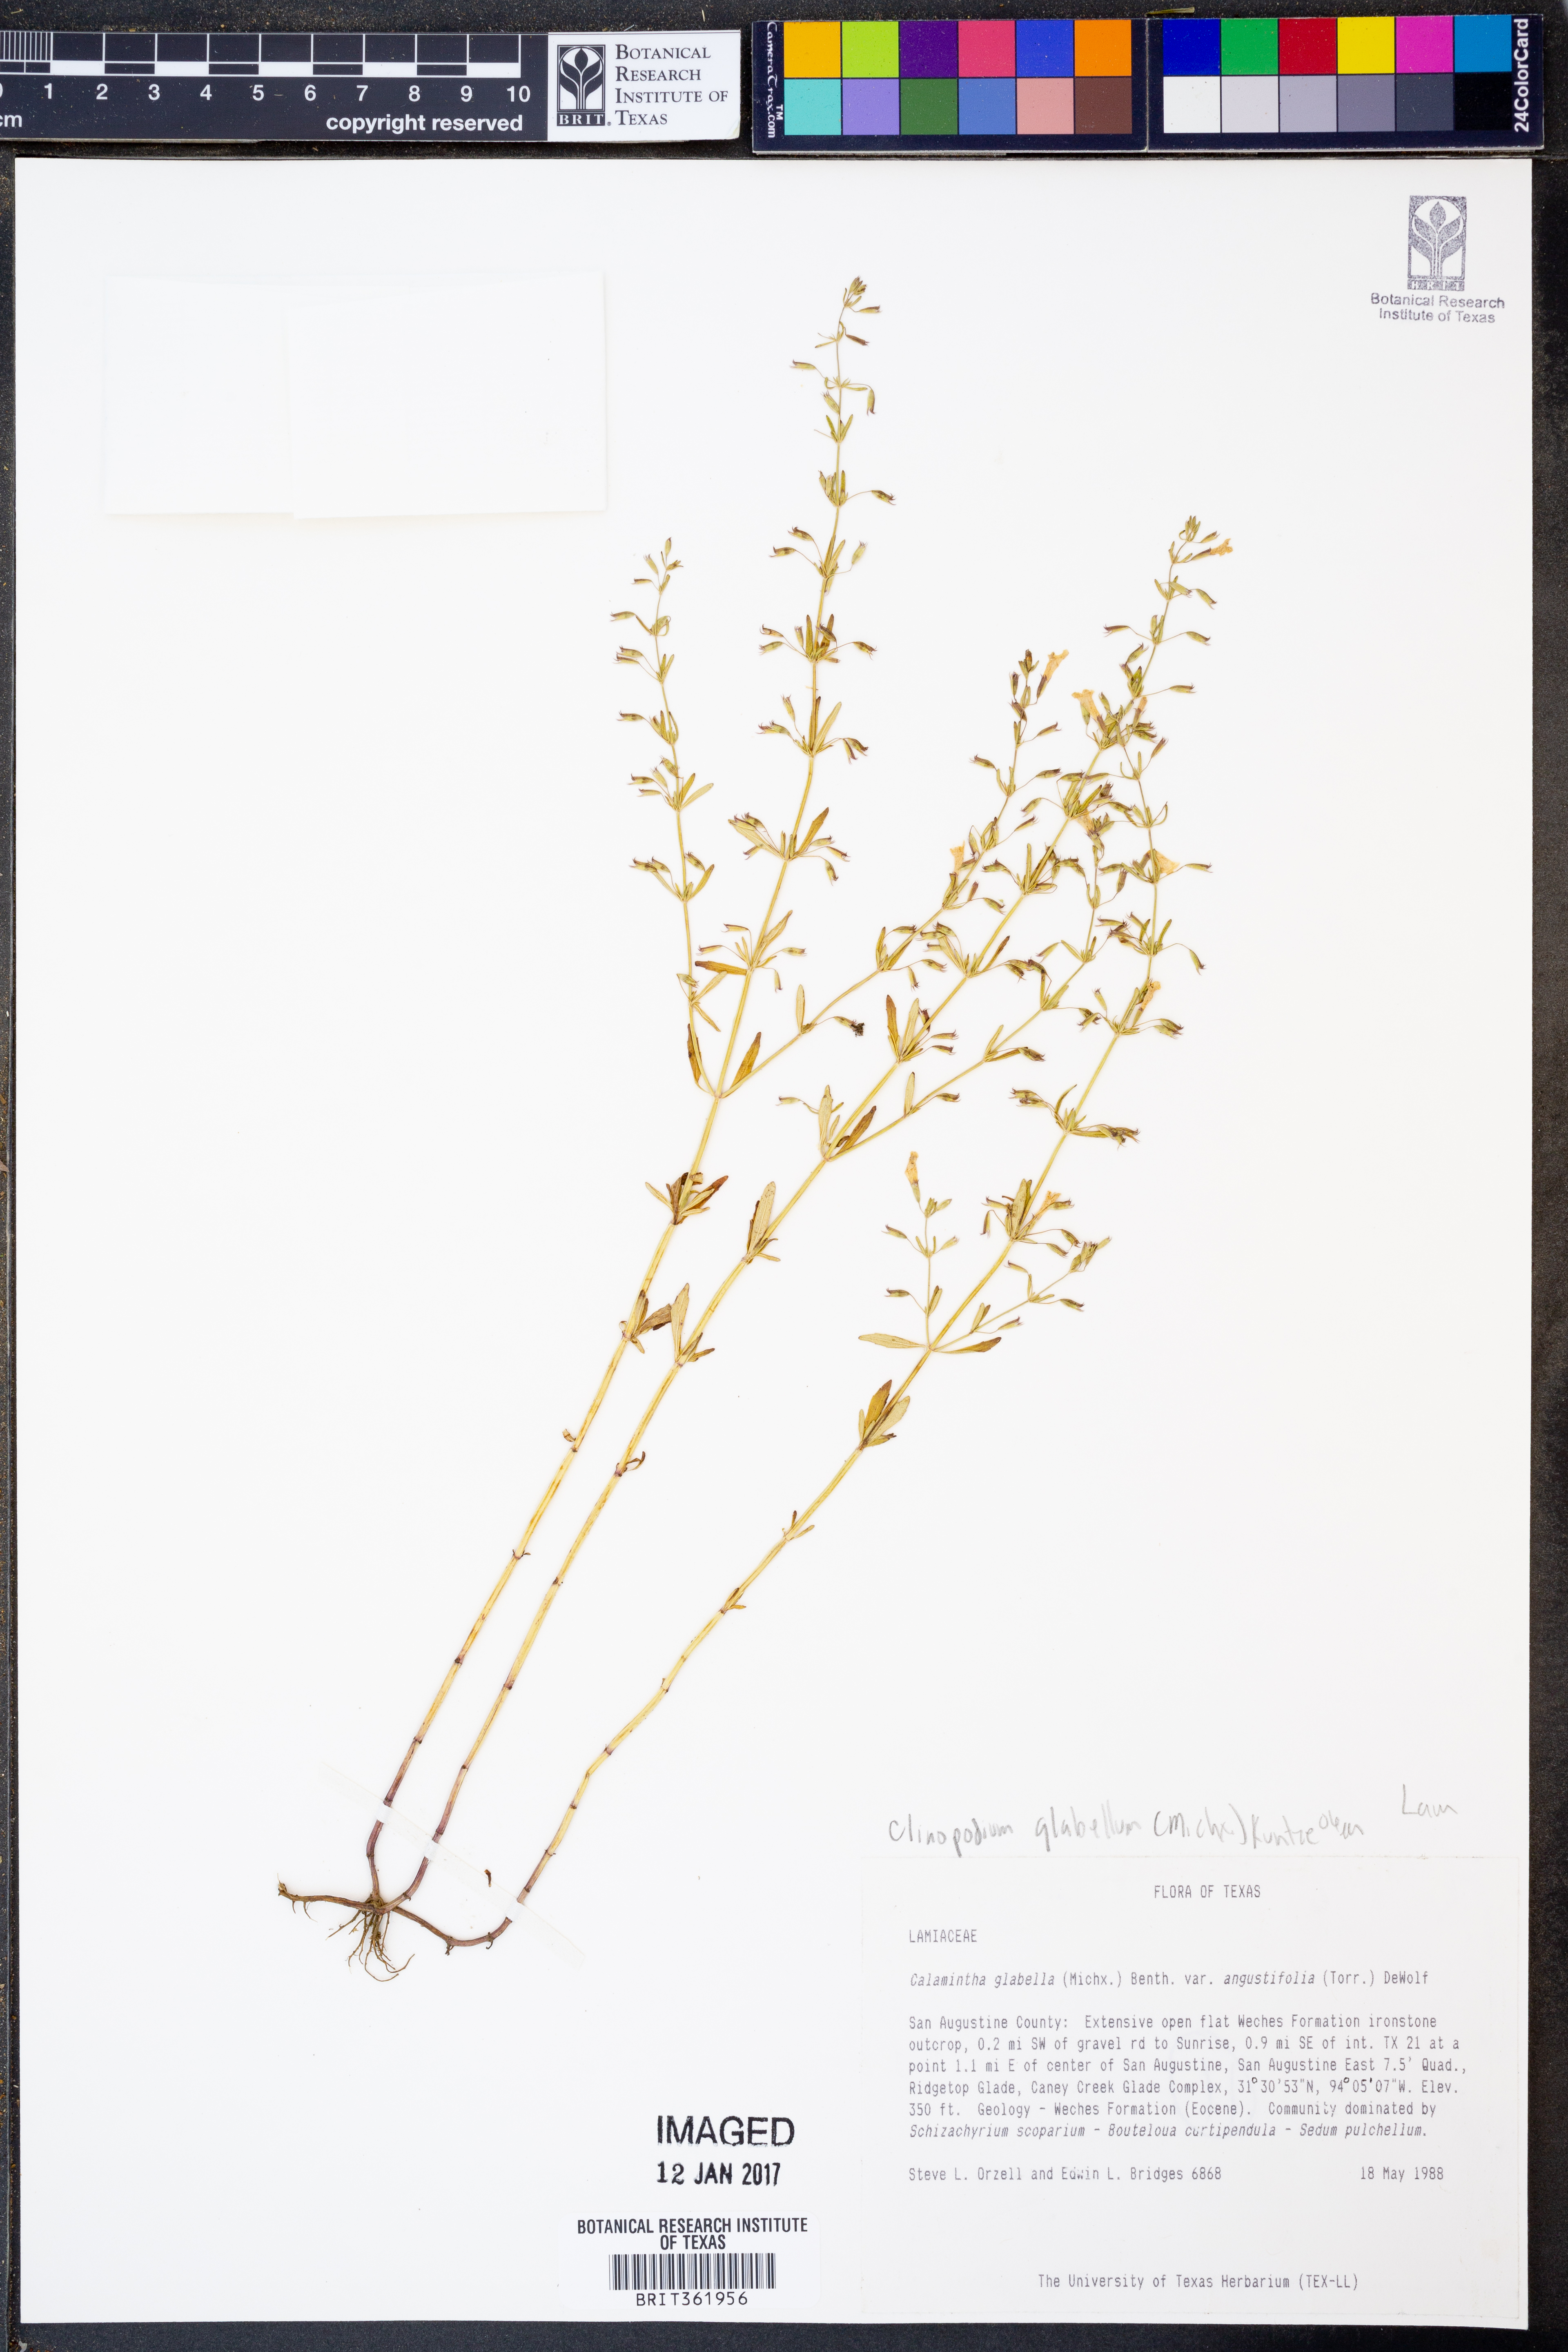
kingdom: Plantae
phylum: Tracheophyta
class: Magnoliopsida
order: Lamiales
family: Lamiaceae
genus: Clinopodium
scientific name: Clinopodium arkansanum
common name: Limestone calamint
